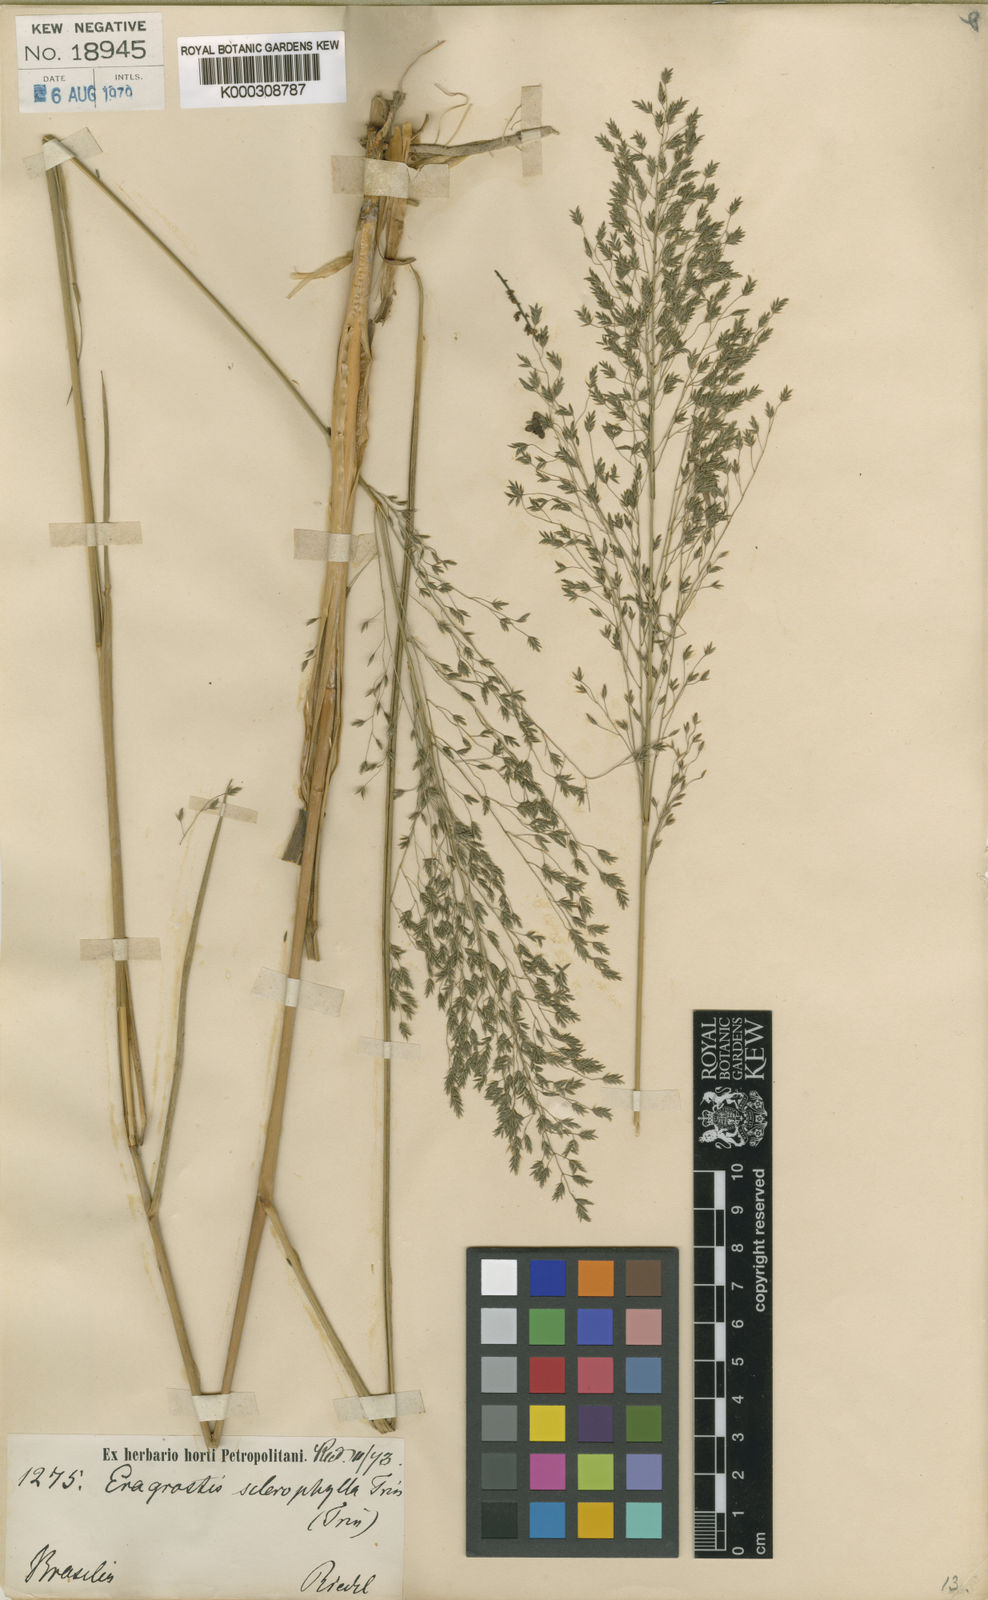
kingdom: Plantae
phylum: Tracheophyta
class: Liliopsida
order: Poales
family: Poaceae
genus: Eragrostis
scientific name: Eragrostis sclerophylla
